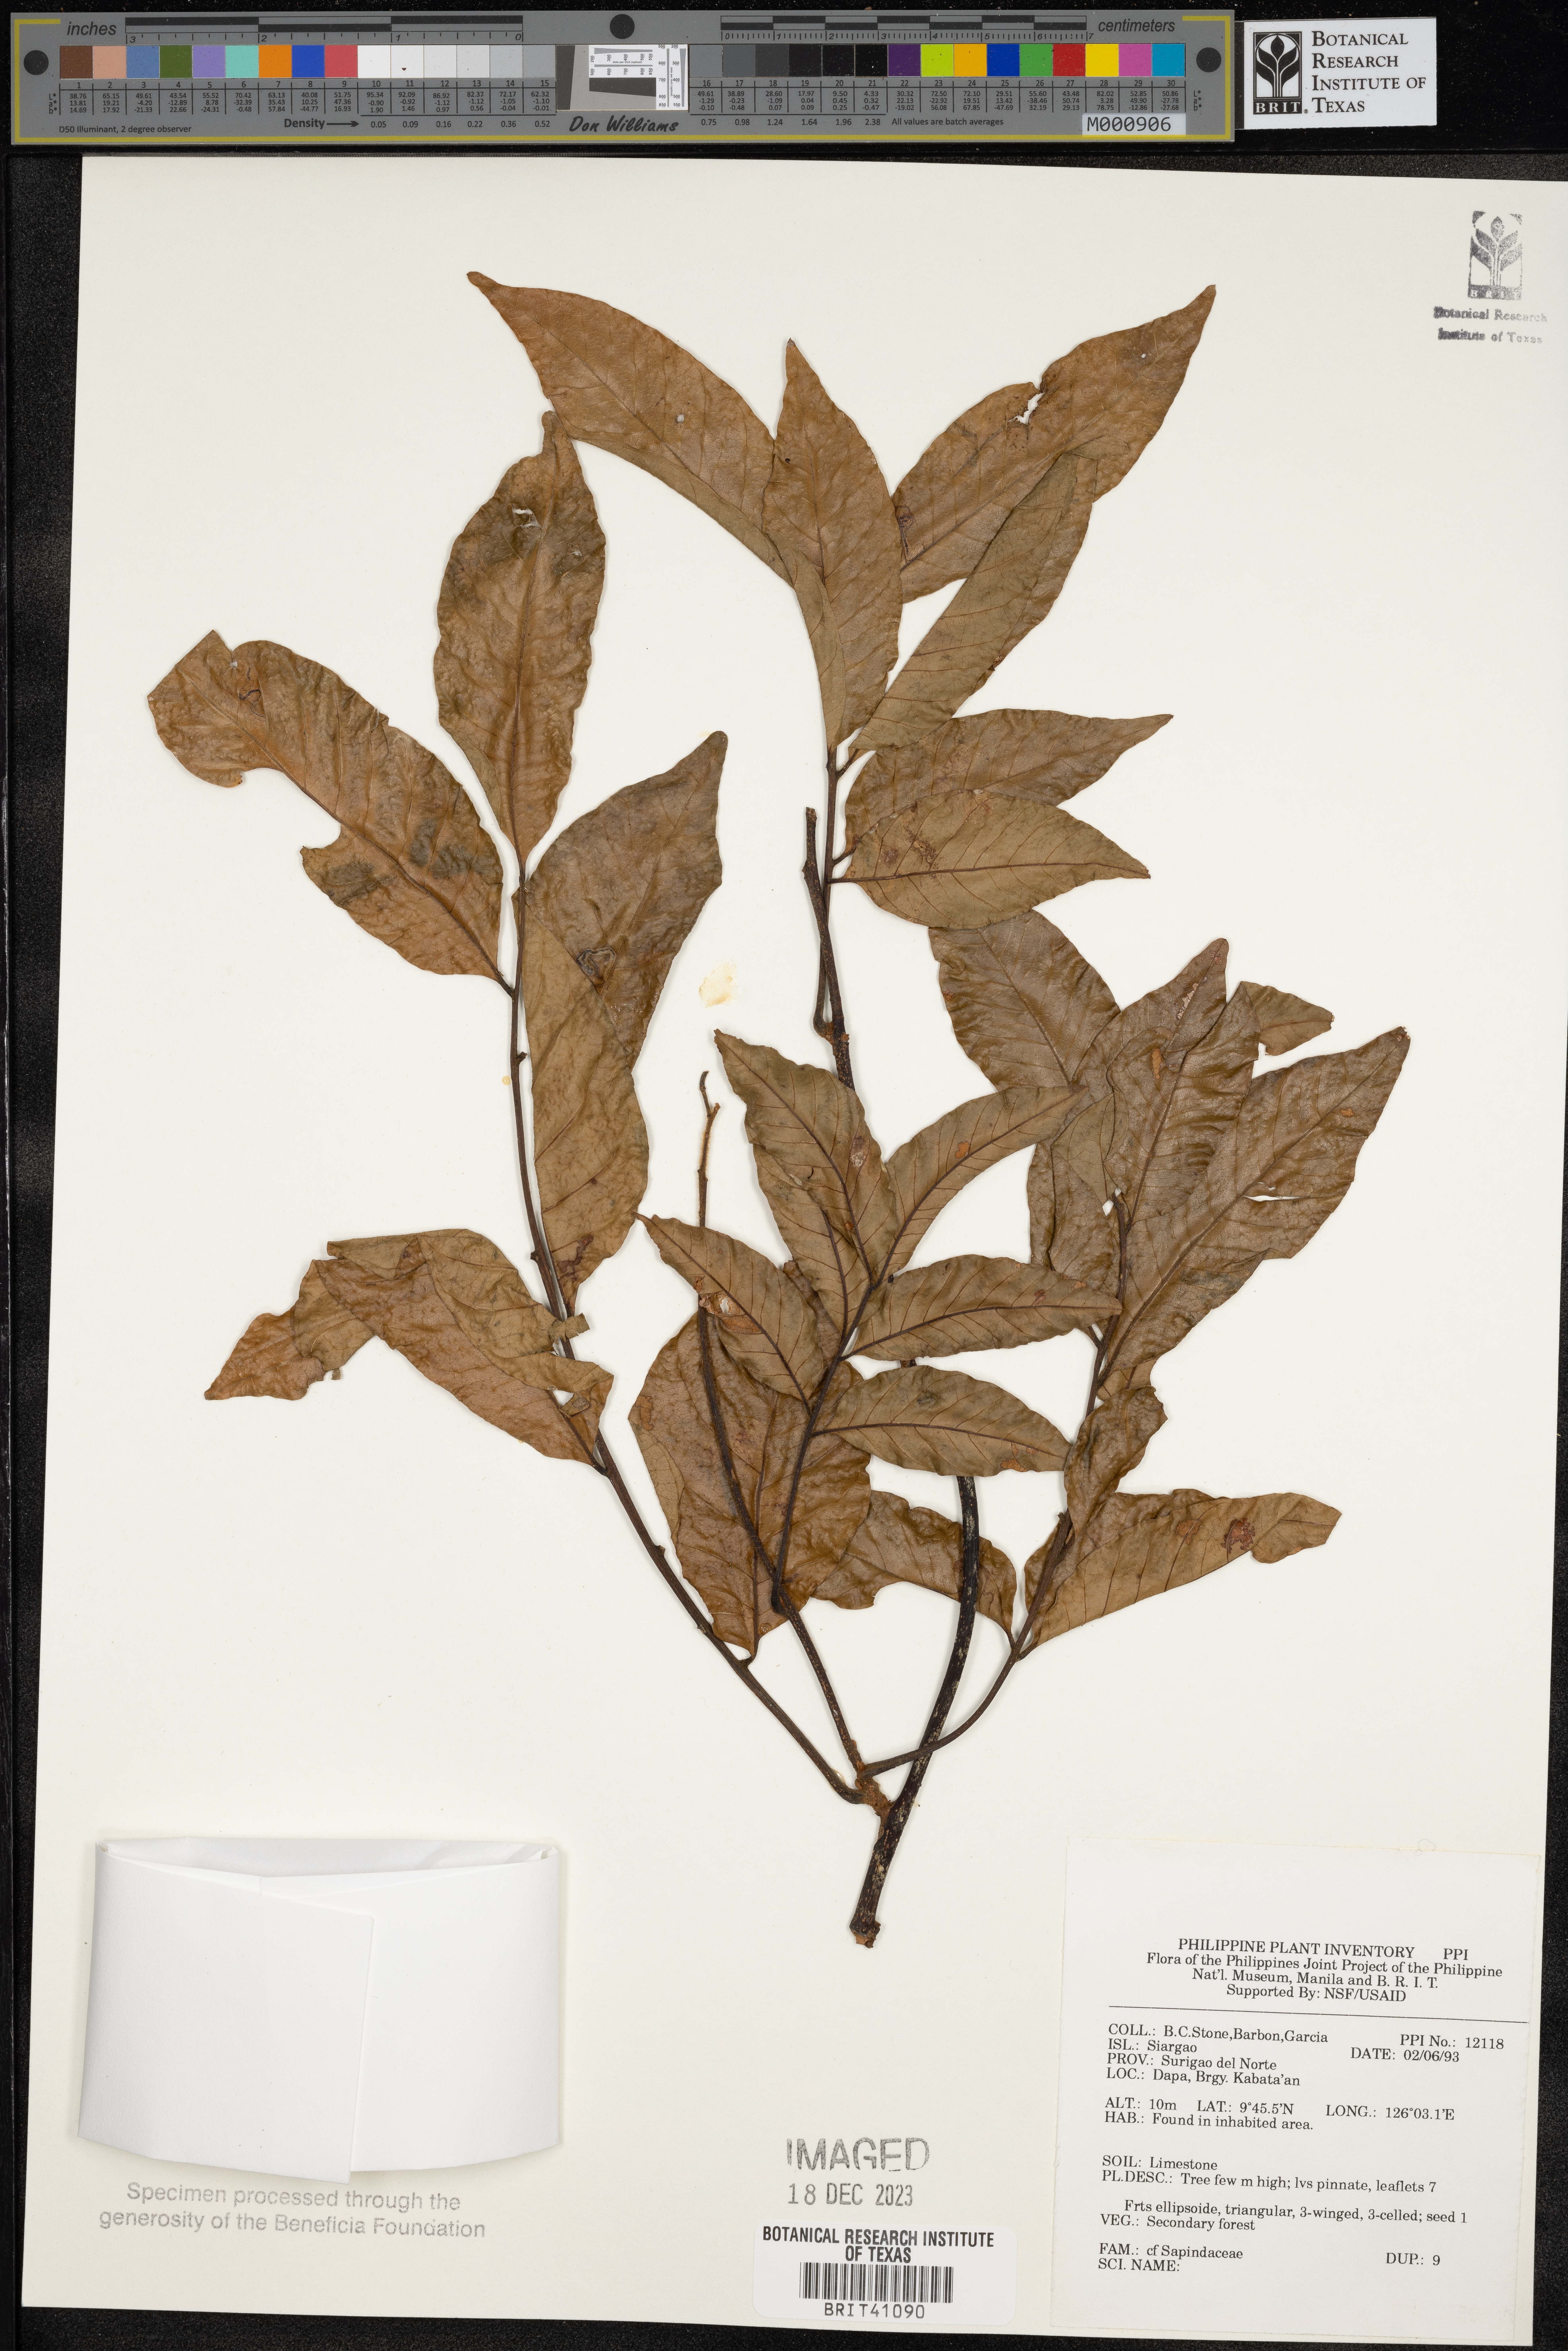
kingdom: Plantae
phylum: Tracheophyta
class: Magnoliopsida
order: Sapindales
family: Sapindaceae
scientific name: Sapindaceae
